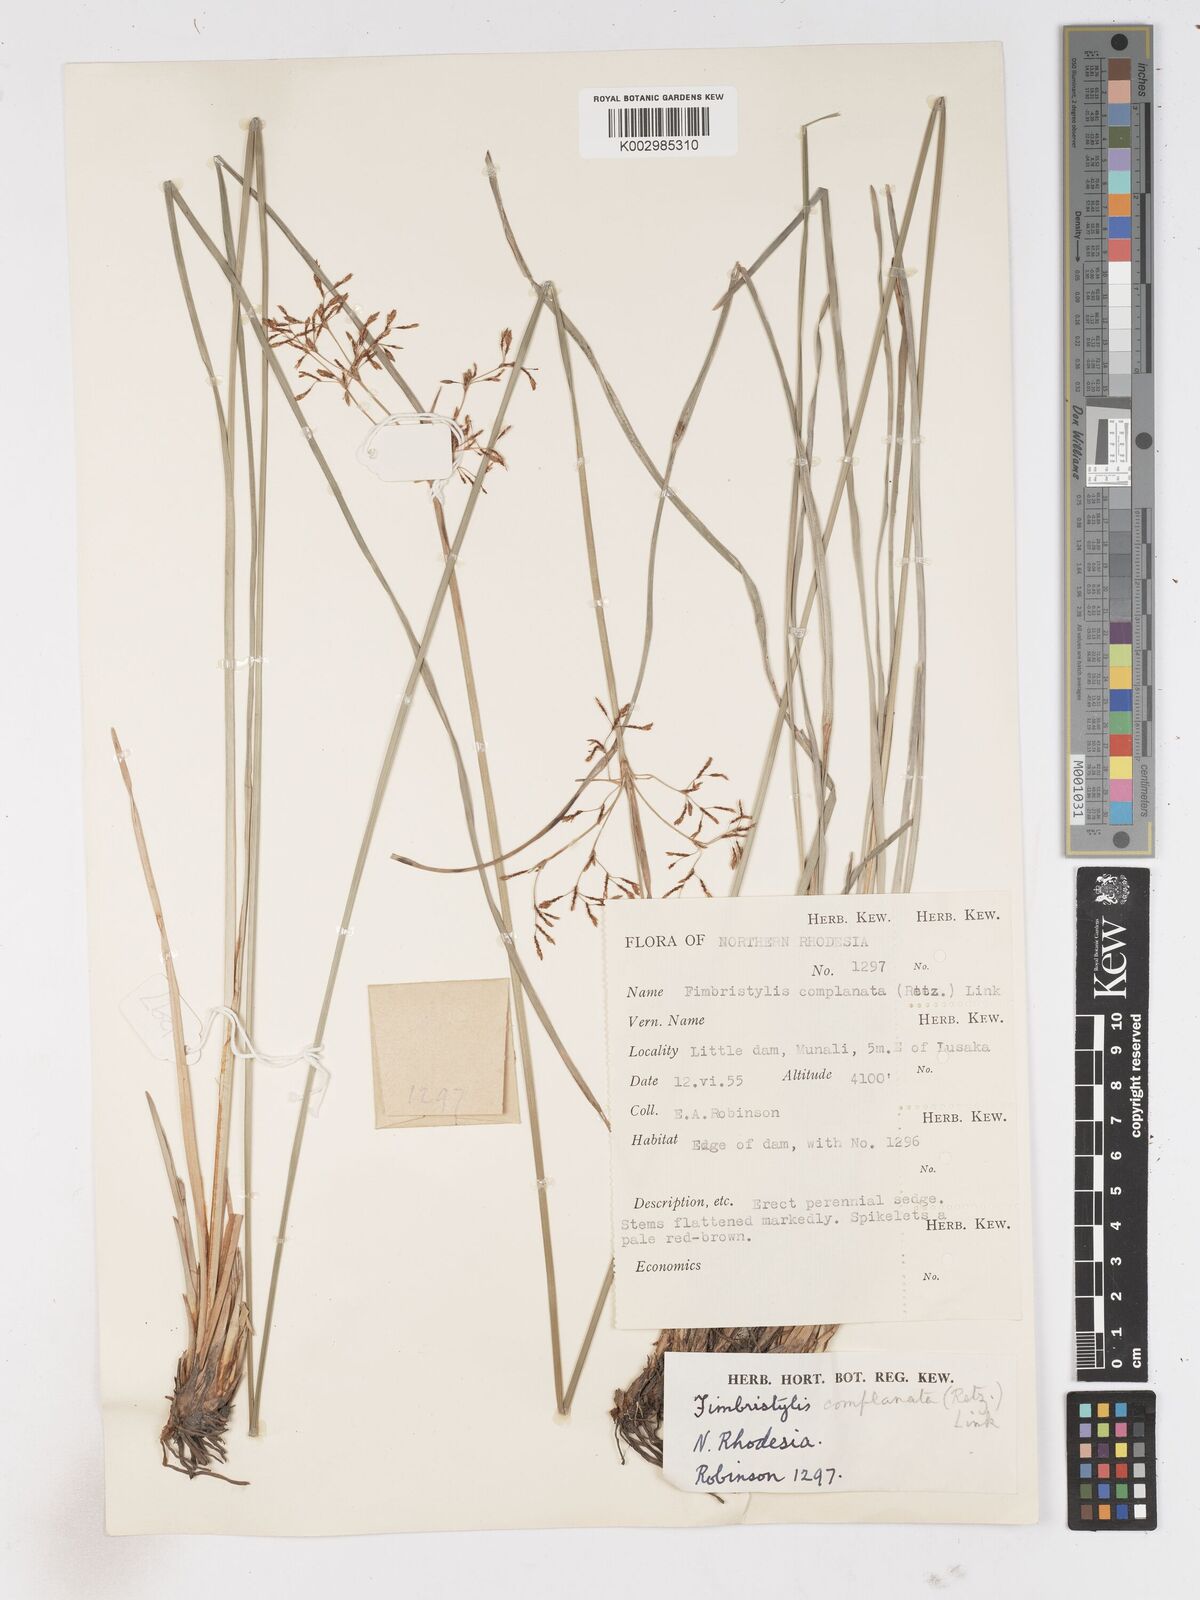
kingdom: Plantae
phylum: Tracheophyta
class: Liliopsida
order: Poales
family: Cyperaceae
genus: Fimbristylis
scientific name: Fimbristylis complanata
